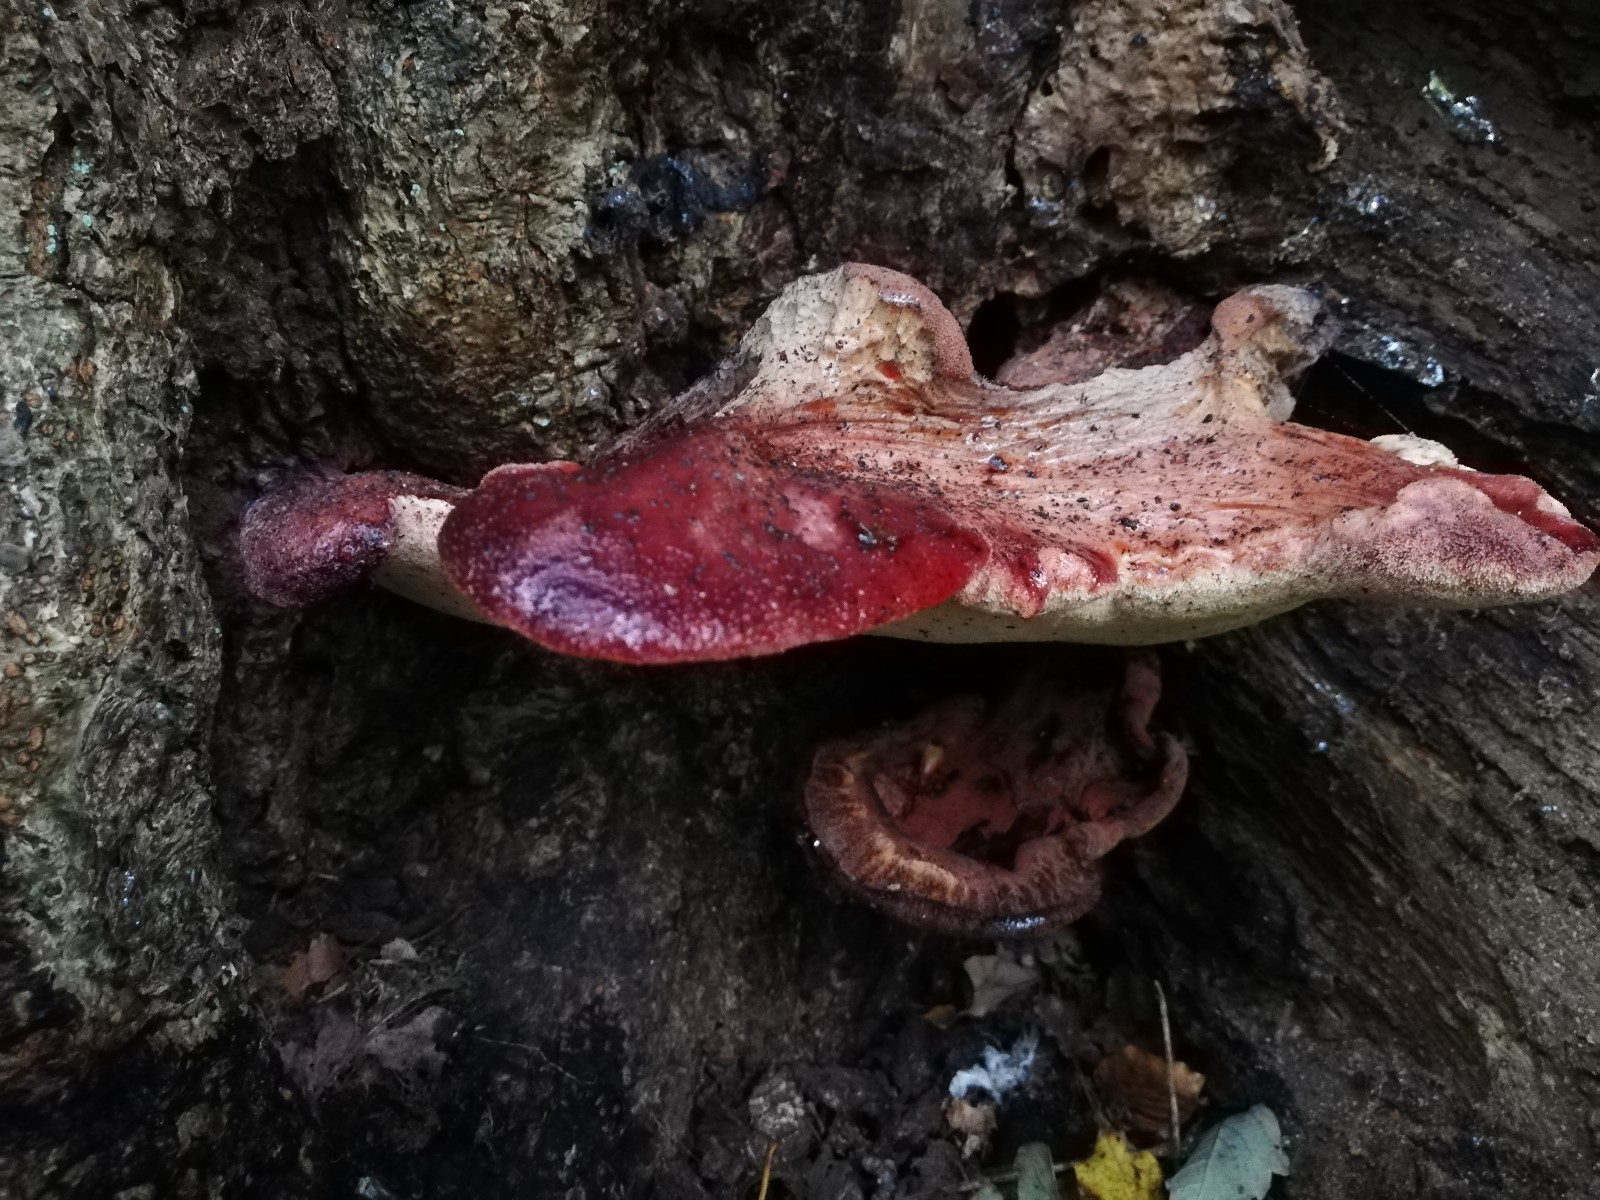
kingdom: Fungi
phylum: Basidiomycota
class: Agaricomycetes
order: Agaricales
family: Fistulinaceae
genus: Fistulina
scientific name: Fistulina hepatica
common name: oksetunge
